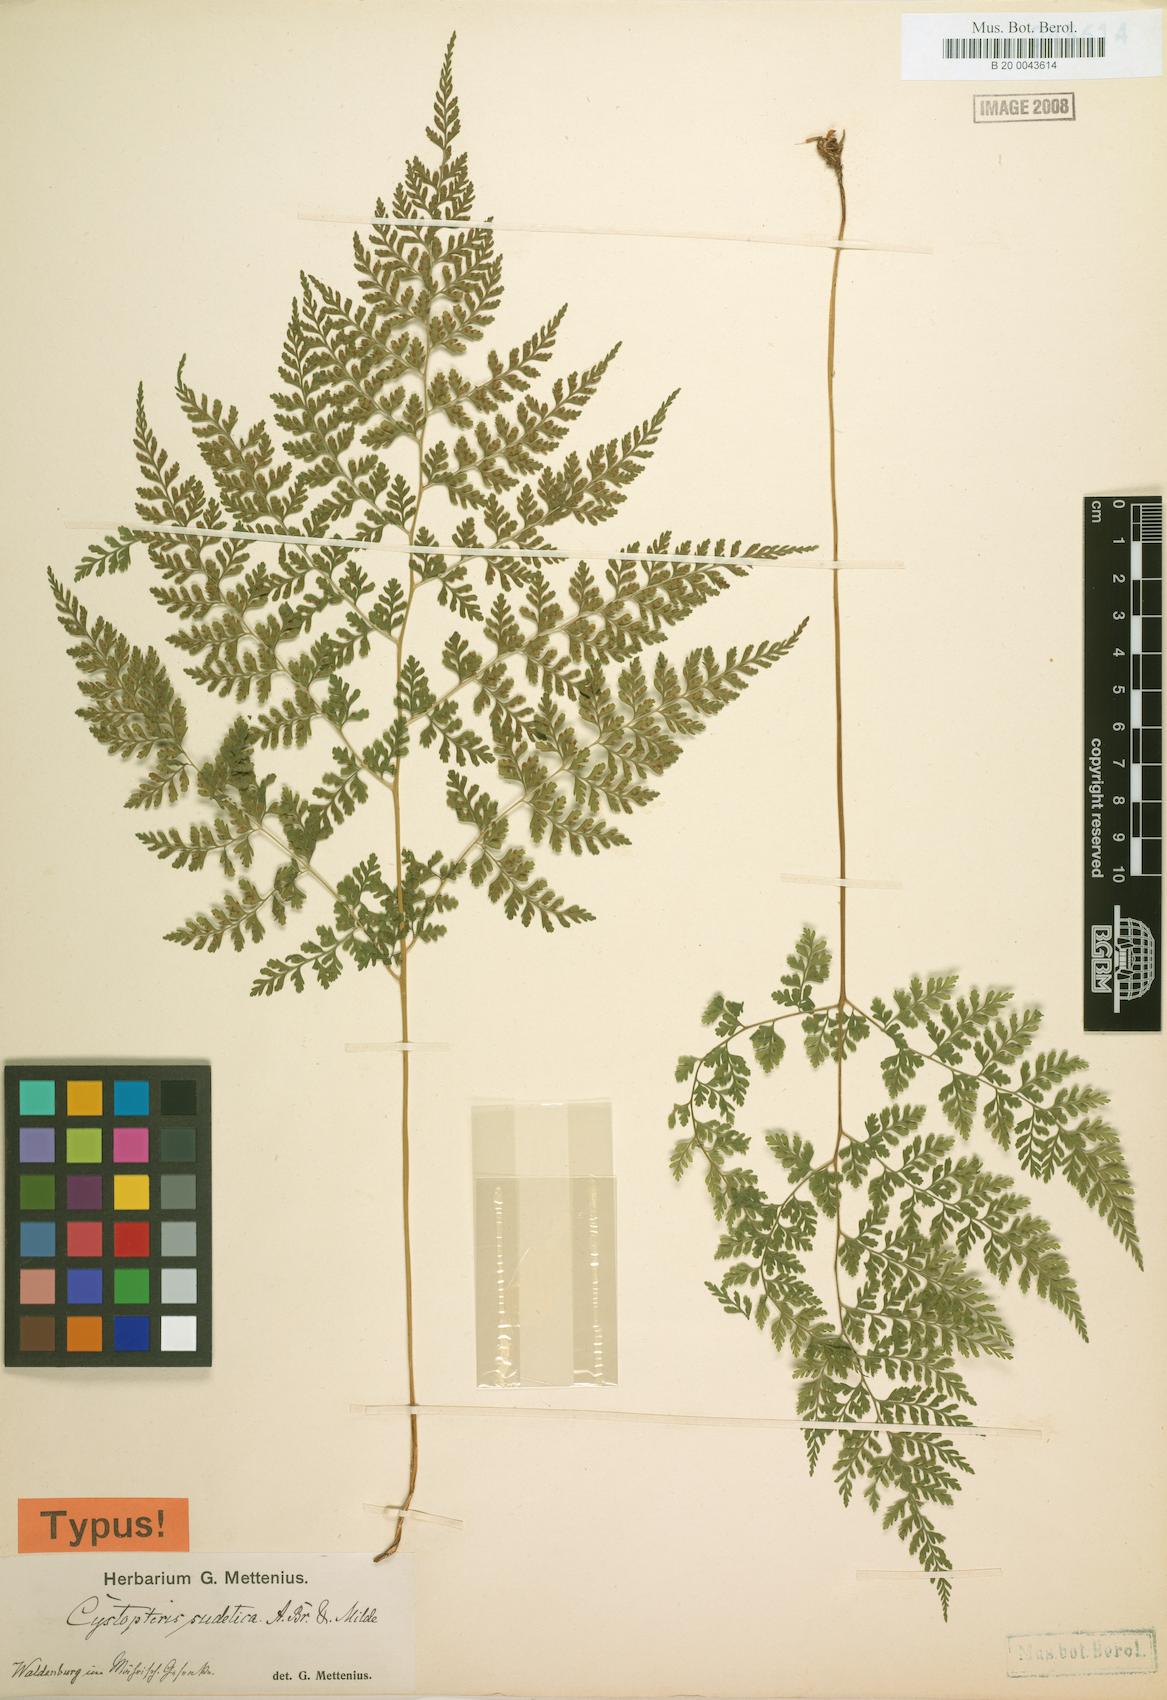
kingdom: Plantae
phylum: Tracheophyta
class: Polypodiopsida
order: Polypodiales
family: Cystopteridaceae
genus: Cystopteris
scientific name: Cystopteris sudetica
